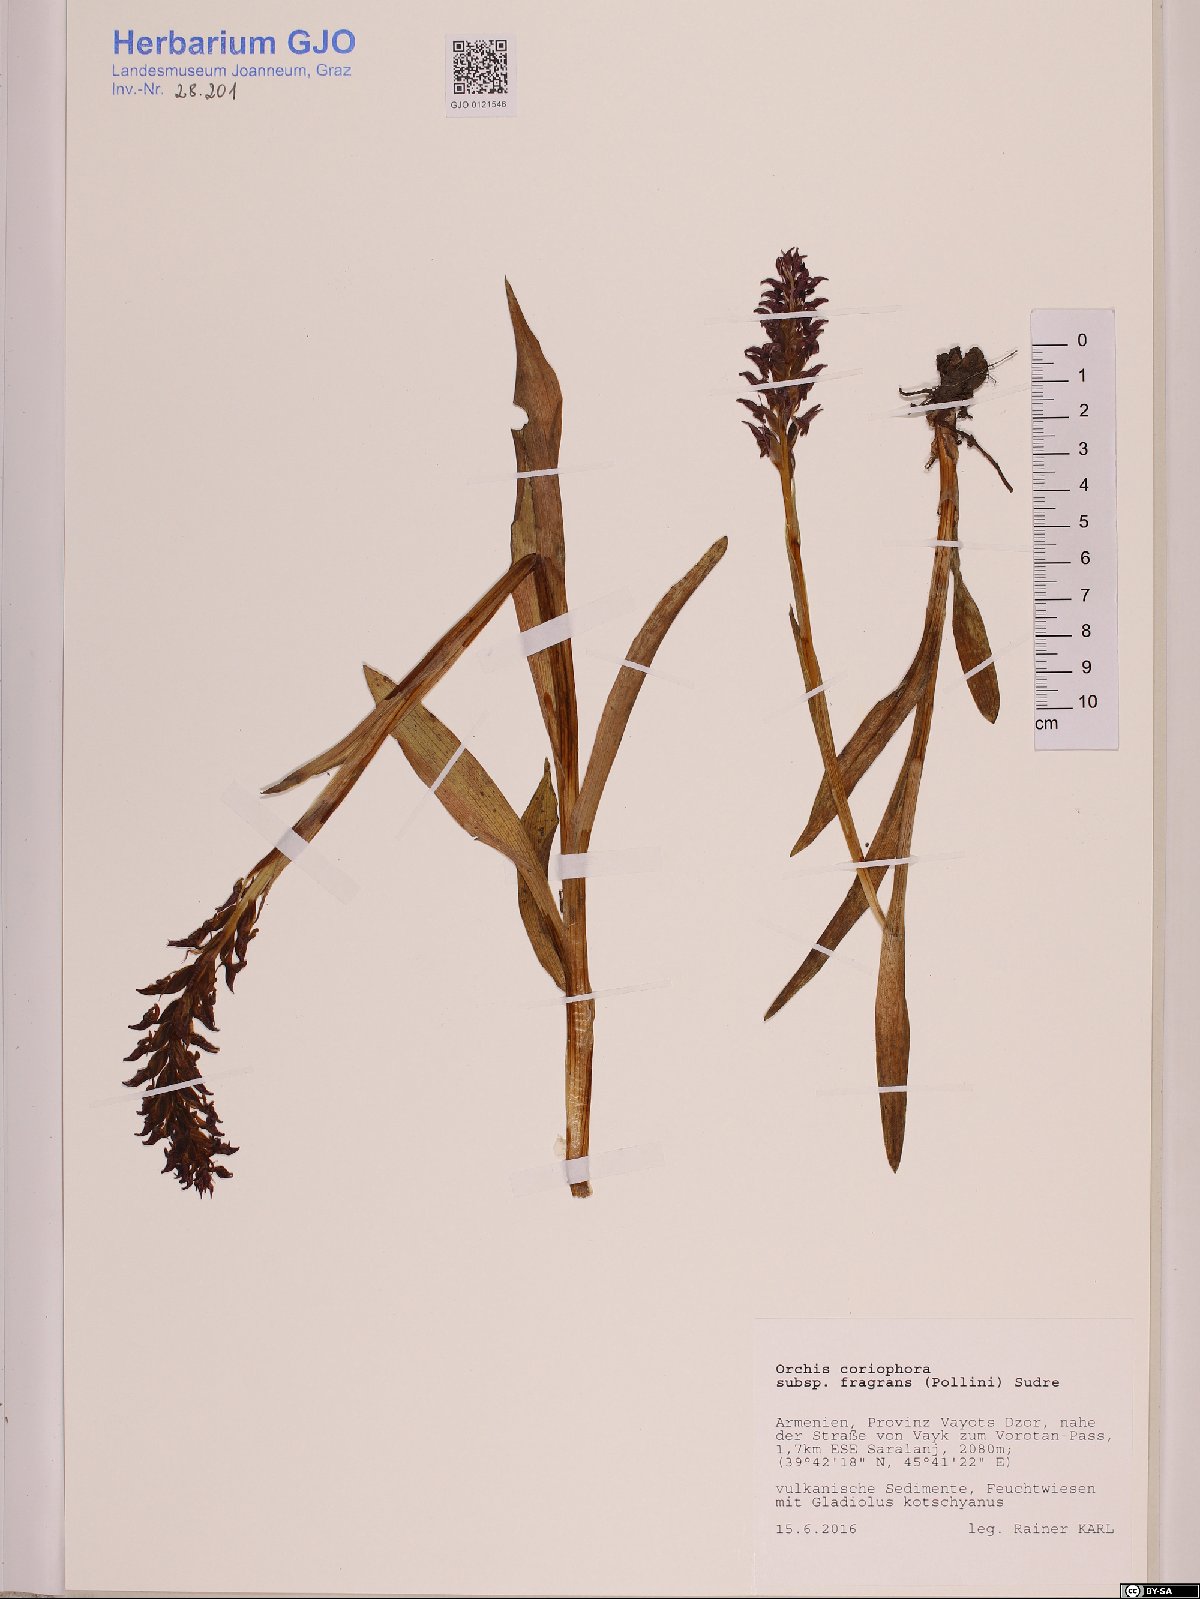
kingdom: Plantae
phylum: Tracheophyta
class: Liliopsida
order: Asparagales
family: Orchidaceae
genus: Anacamptis
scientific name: Anacamptis coriophora
